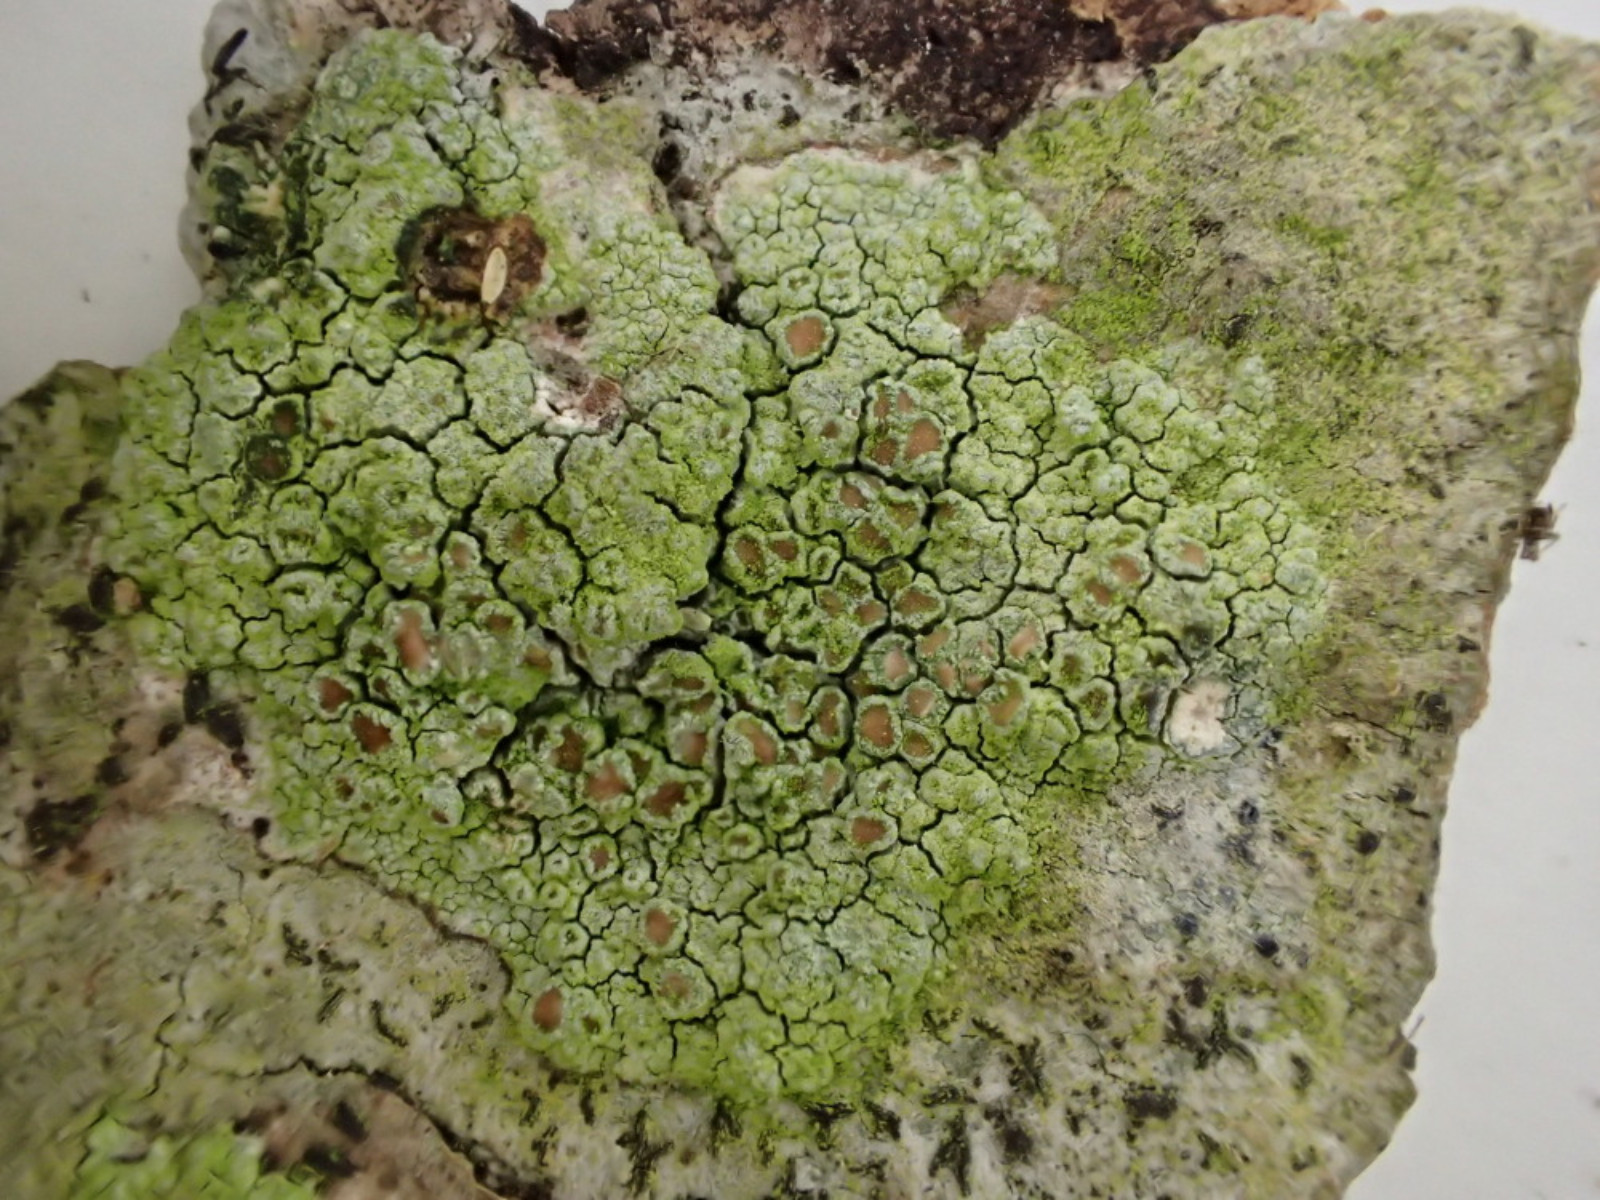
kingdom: Fungi
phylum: Ascomycota
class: Lecanoromycetes
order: Lecanorales
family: Lecanoraceae
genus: Lecanora
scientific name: Lecanora chlarotera
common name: brun kantskivelav
